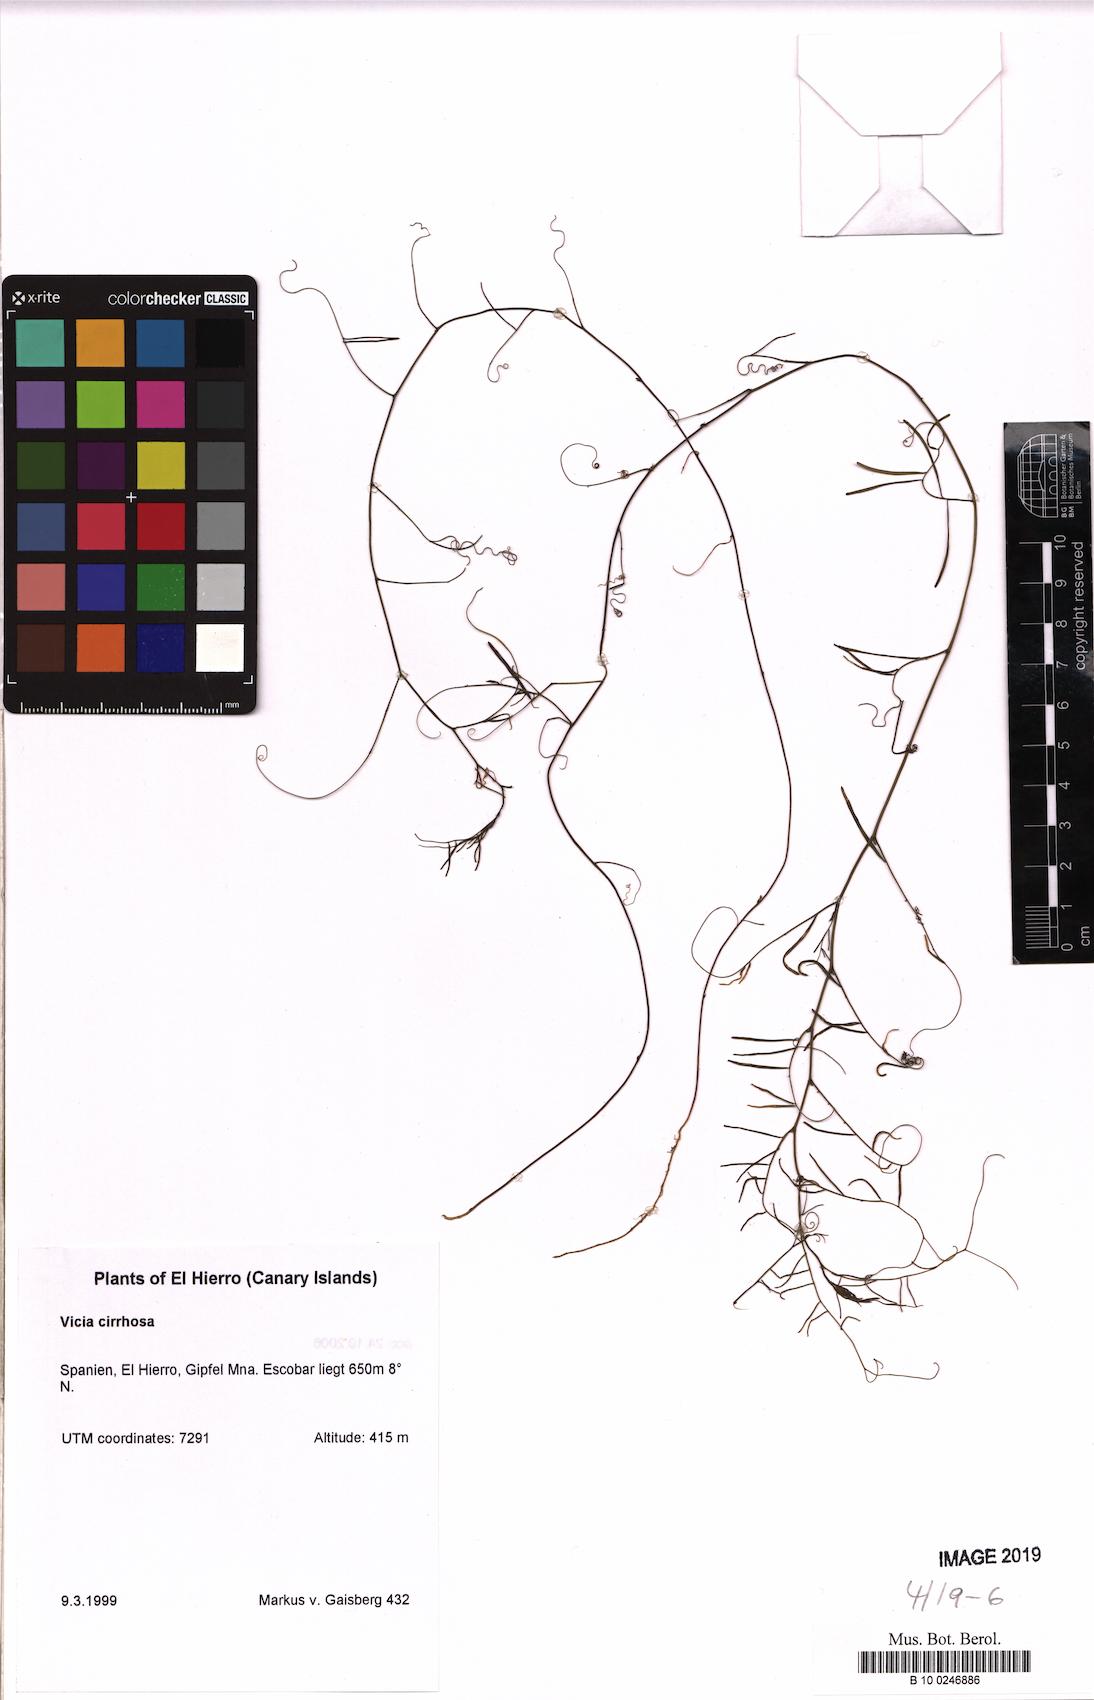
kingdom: Plantae
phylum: Tracheophyta
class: Magnoliopsida
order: Brassicales
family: Brassicaceae
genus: Conringia
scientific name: Conringia planisiliqua
